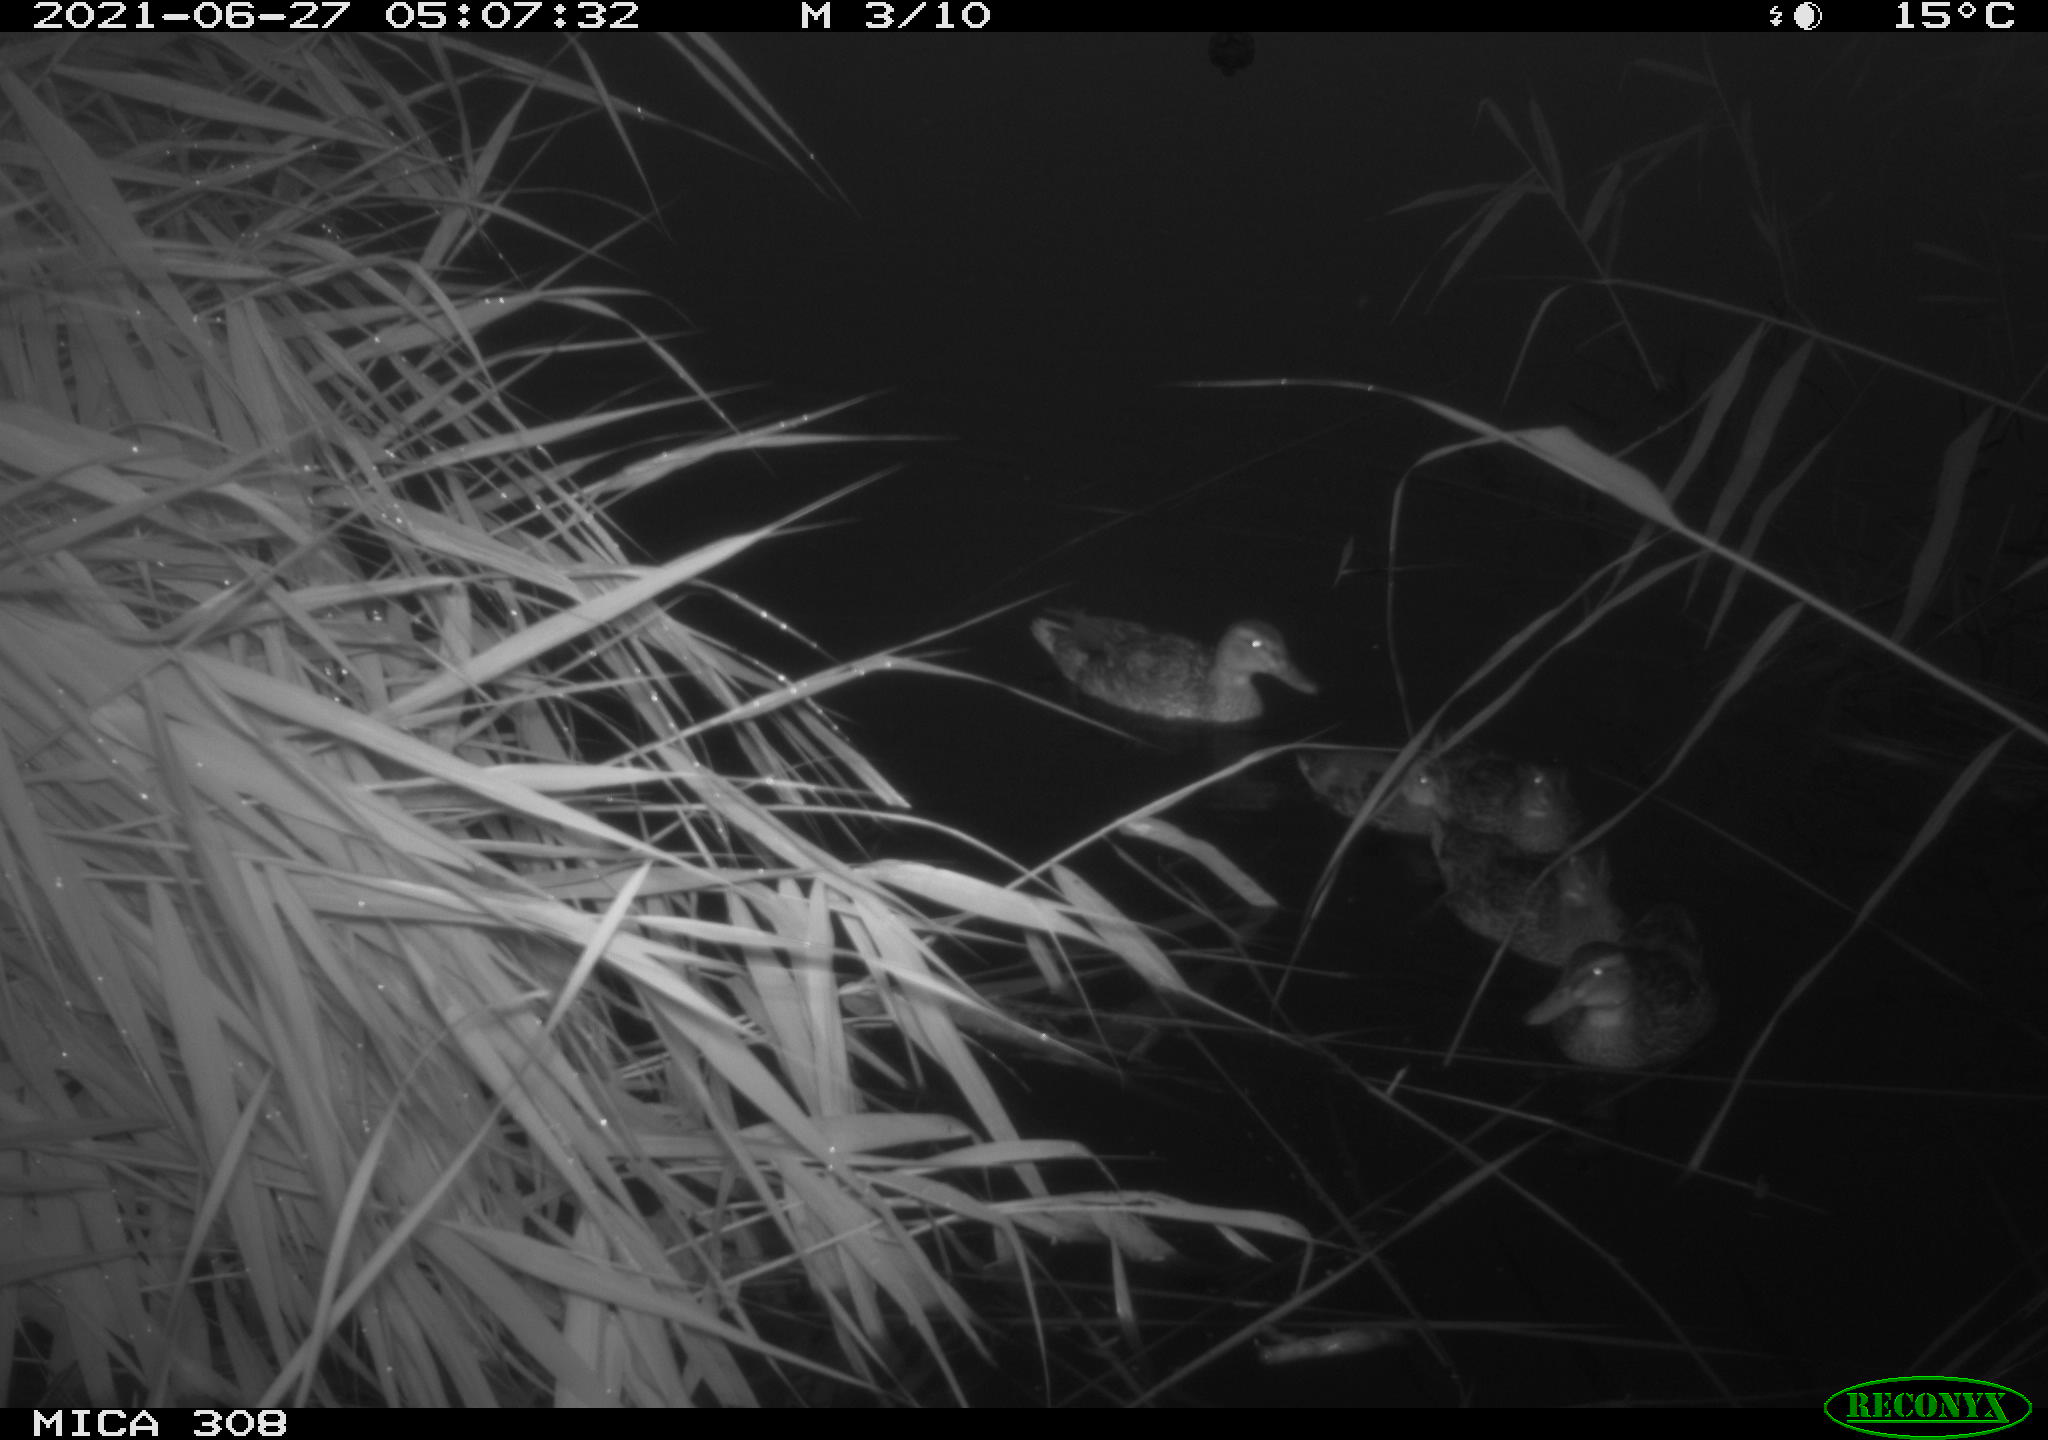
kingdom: Animalia
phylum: Chordata
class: Aves
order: Anseriformes
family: Anatidae
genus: Anas
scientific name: Anas platyrhynchos
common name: Mallard
